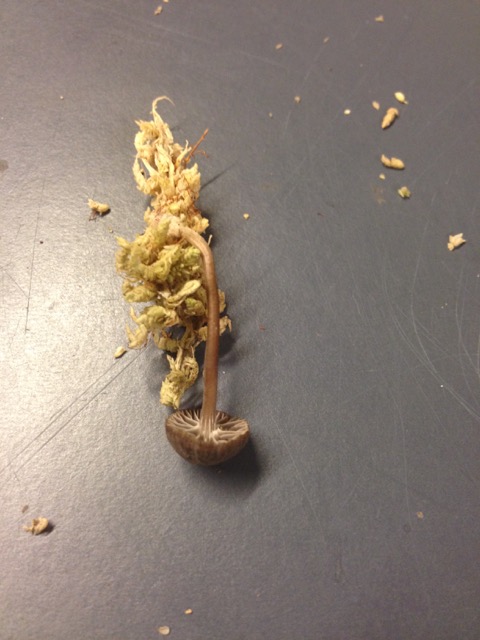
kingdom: Fungi
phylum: Basidiomycota
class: Agaricomycetes
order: Agaricales
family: Mycenaceae
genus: Mycena
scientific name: Mycena concolor
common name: tørvemos-huesvamp
